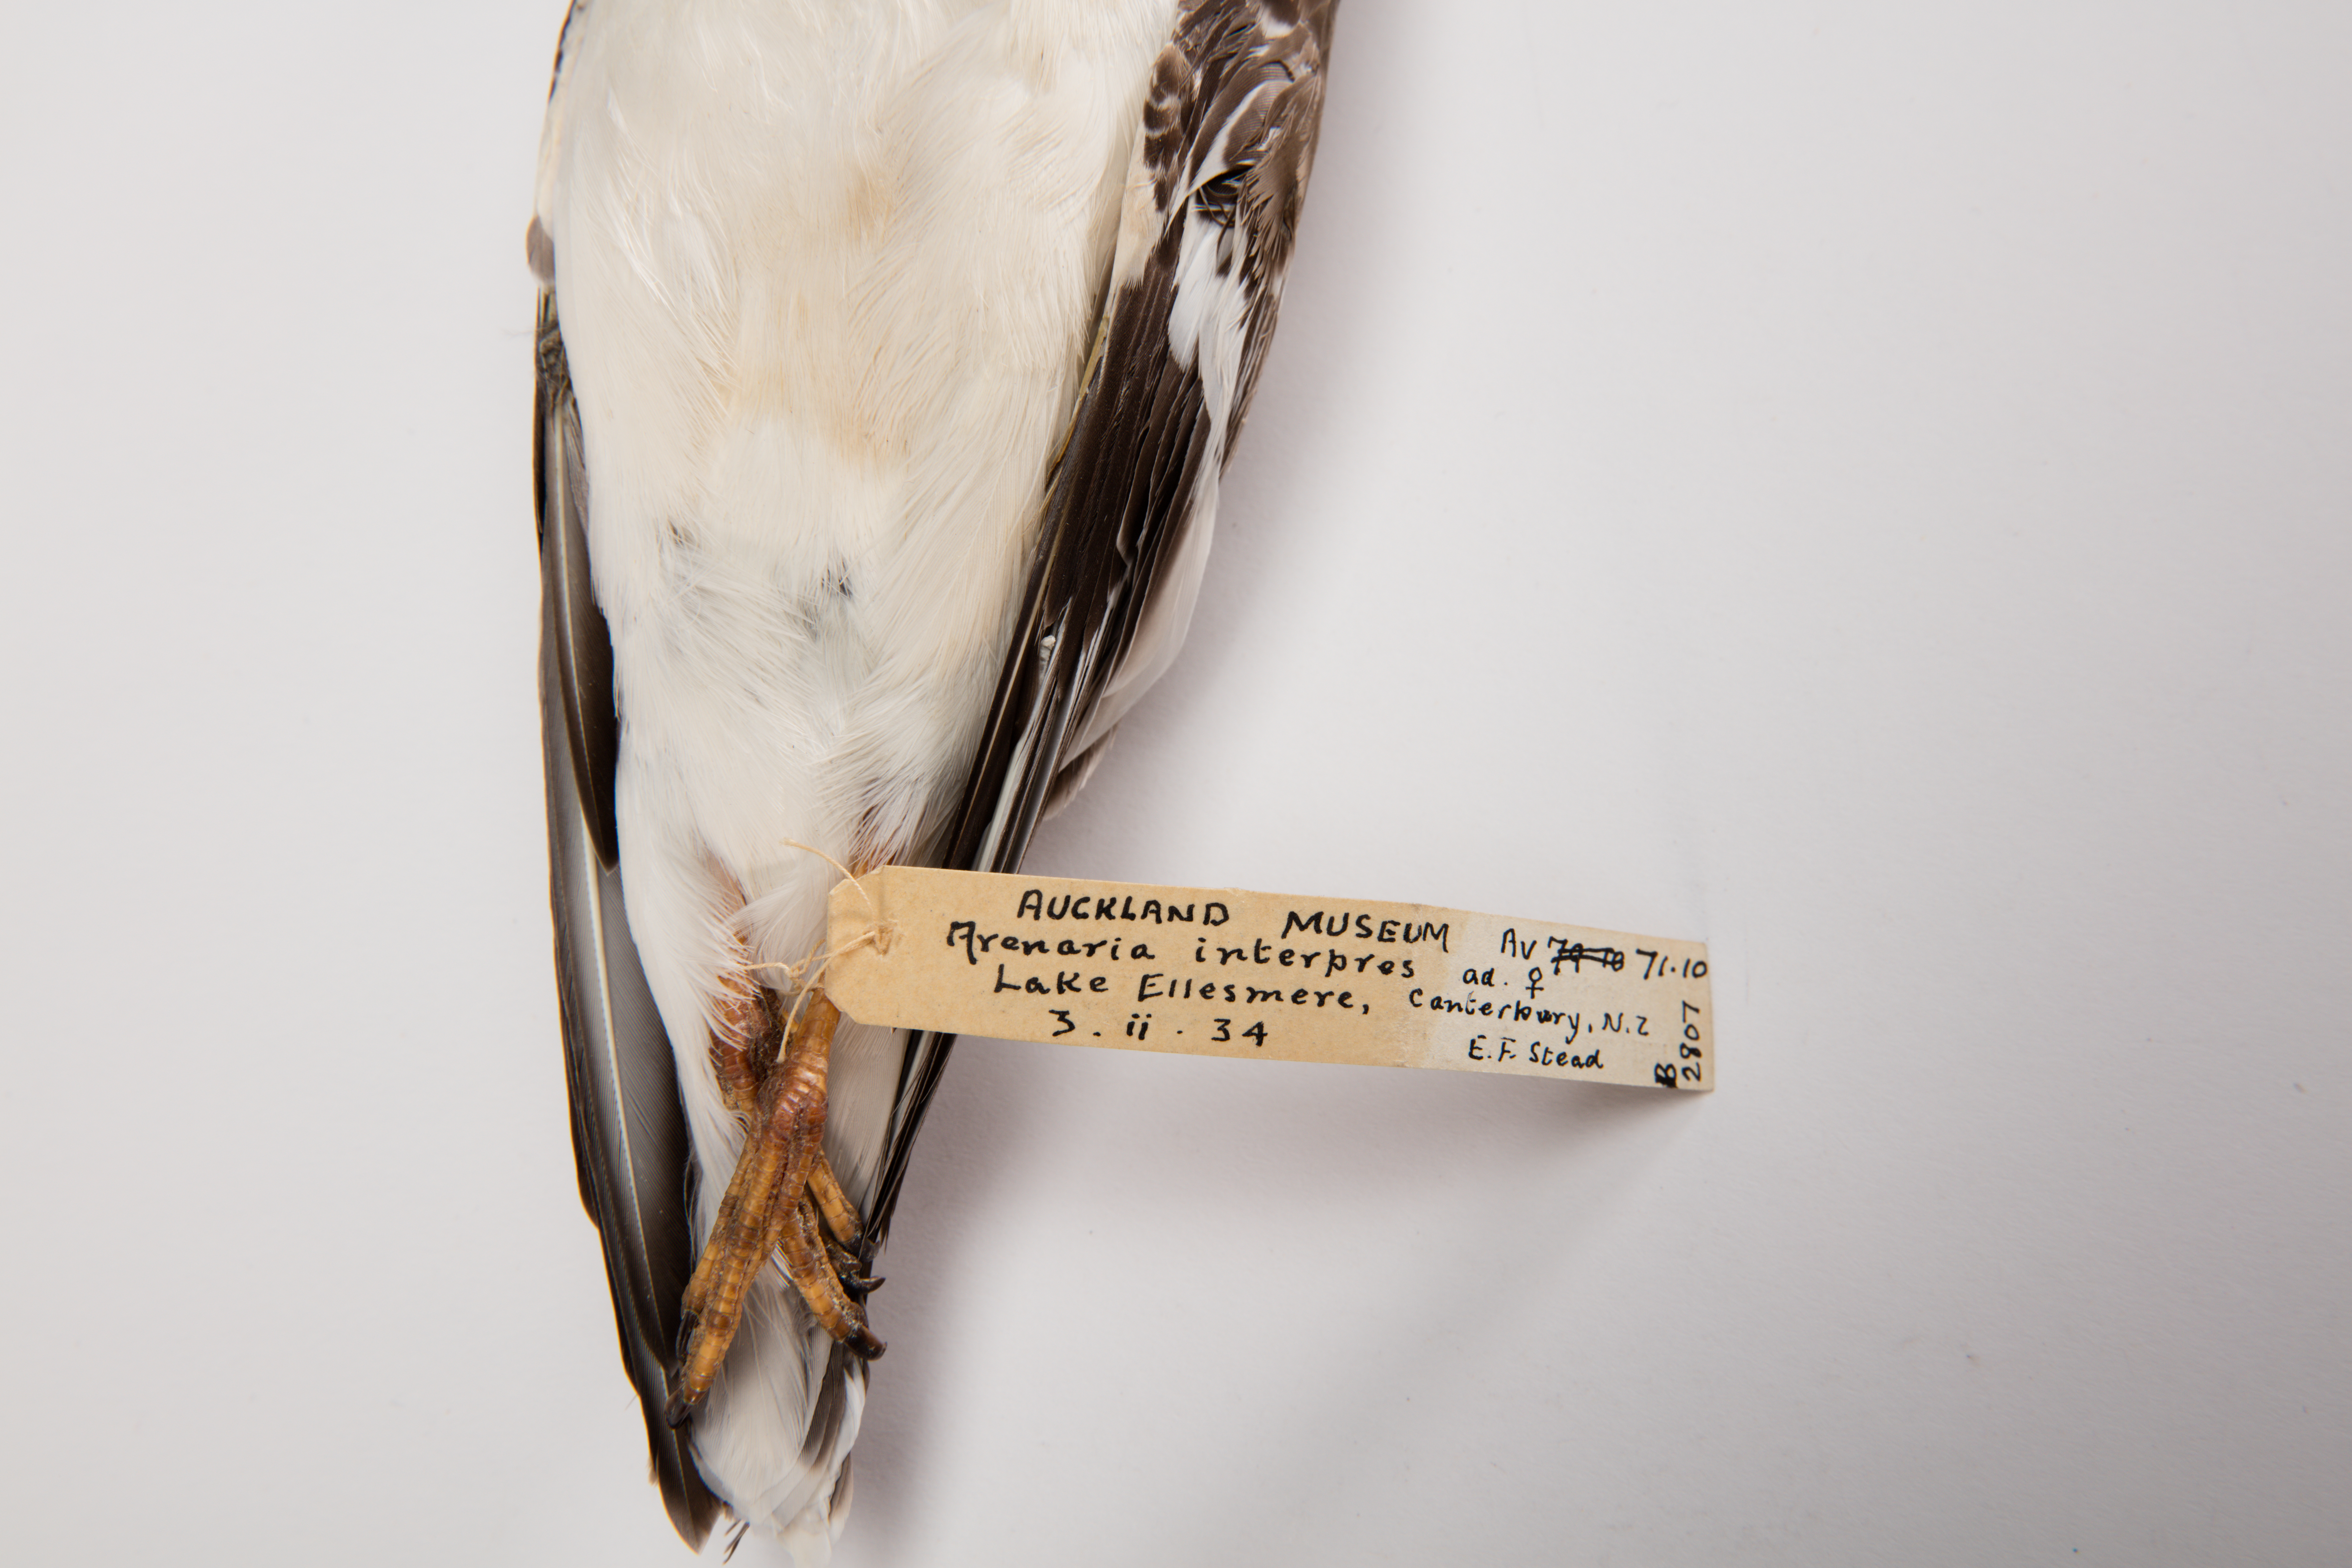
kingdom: Animalia
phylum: Chordata
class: Aves
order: Charadriiformes
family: Scolopacidae
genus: Arenaria
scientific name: Arenaria interpres
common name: Ruddy turnstone
